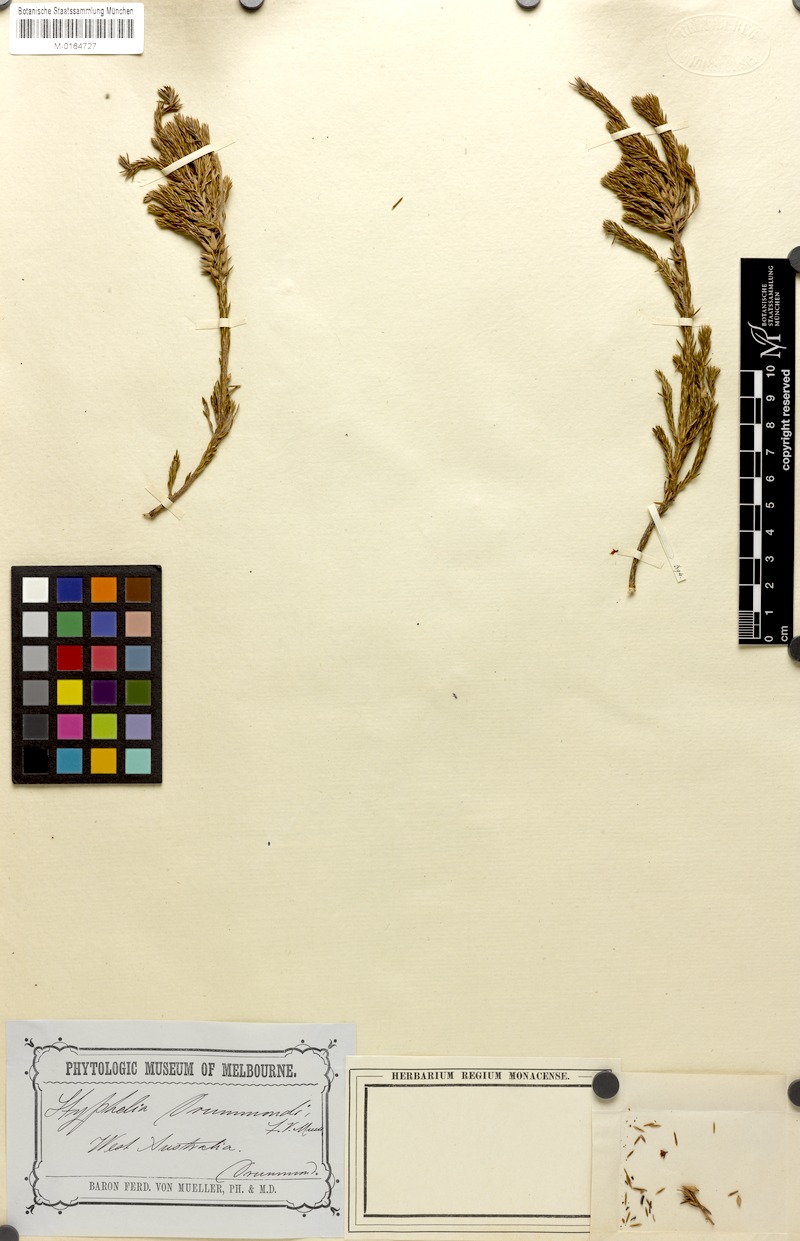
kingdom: Plantae
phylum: Tracheophyta
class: Magnoliopsida
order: Ericales
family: Ericaceae
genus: Styphelia
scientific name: Styphelia epacridis
